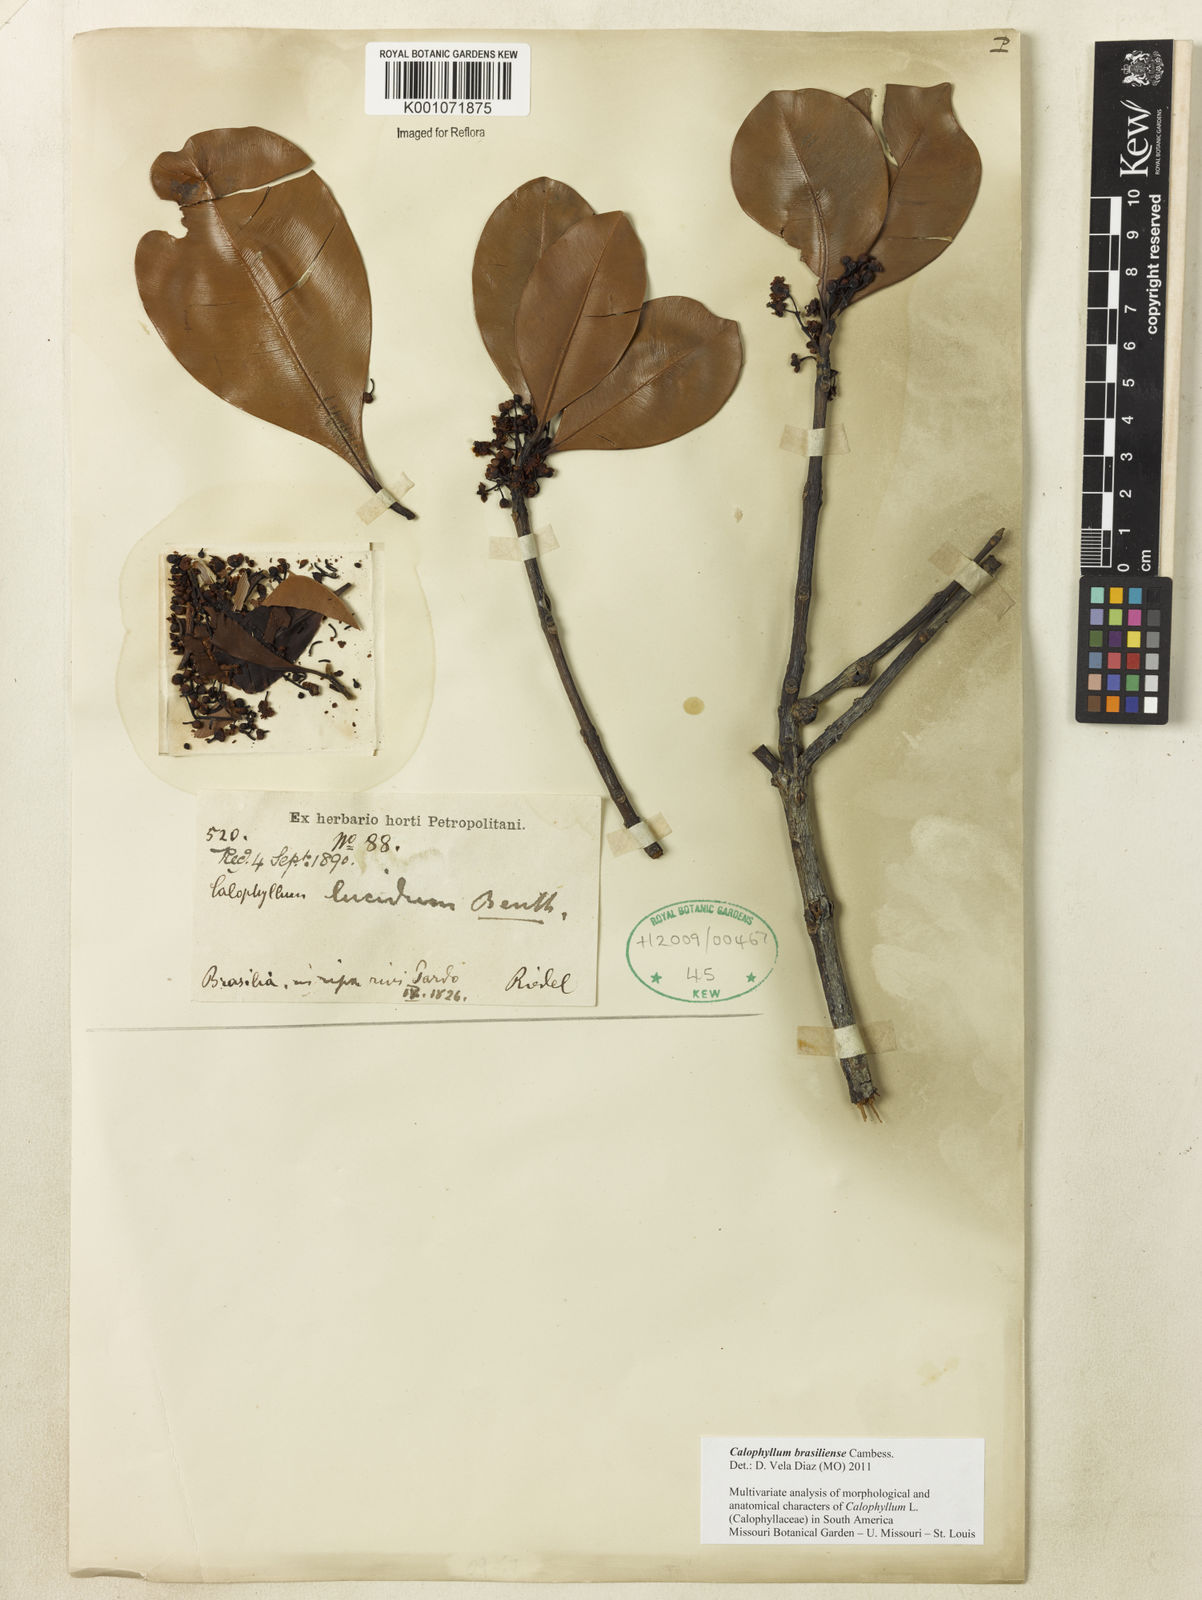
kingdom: Plantae
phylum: Tracheophyta
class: Magnoliopsida
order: Malpighiales
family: Calophyllaceae
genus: Calophyllum
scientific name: Calophyllum brasiliense
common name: Santa maria
